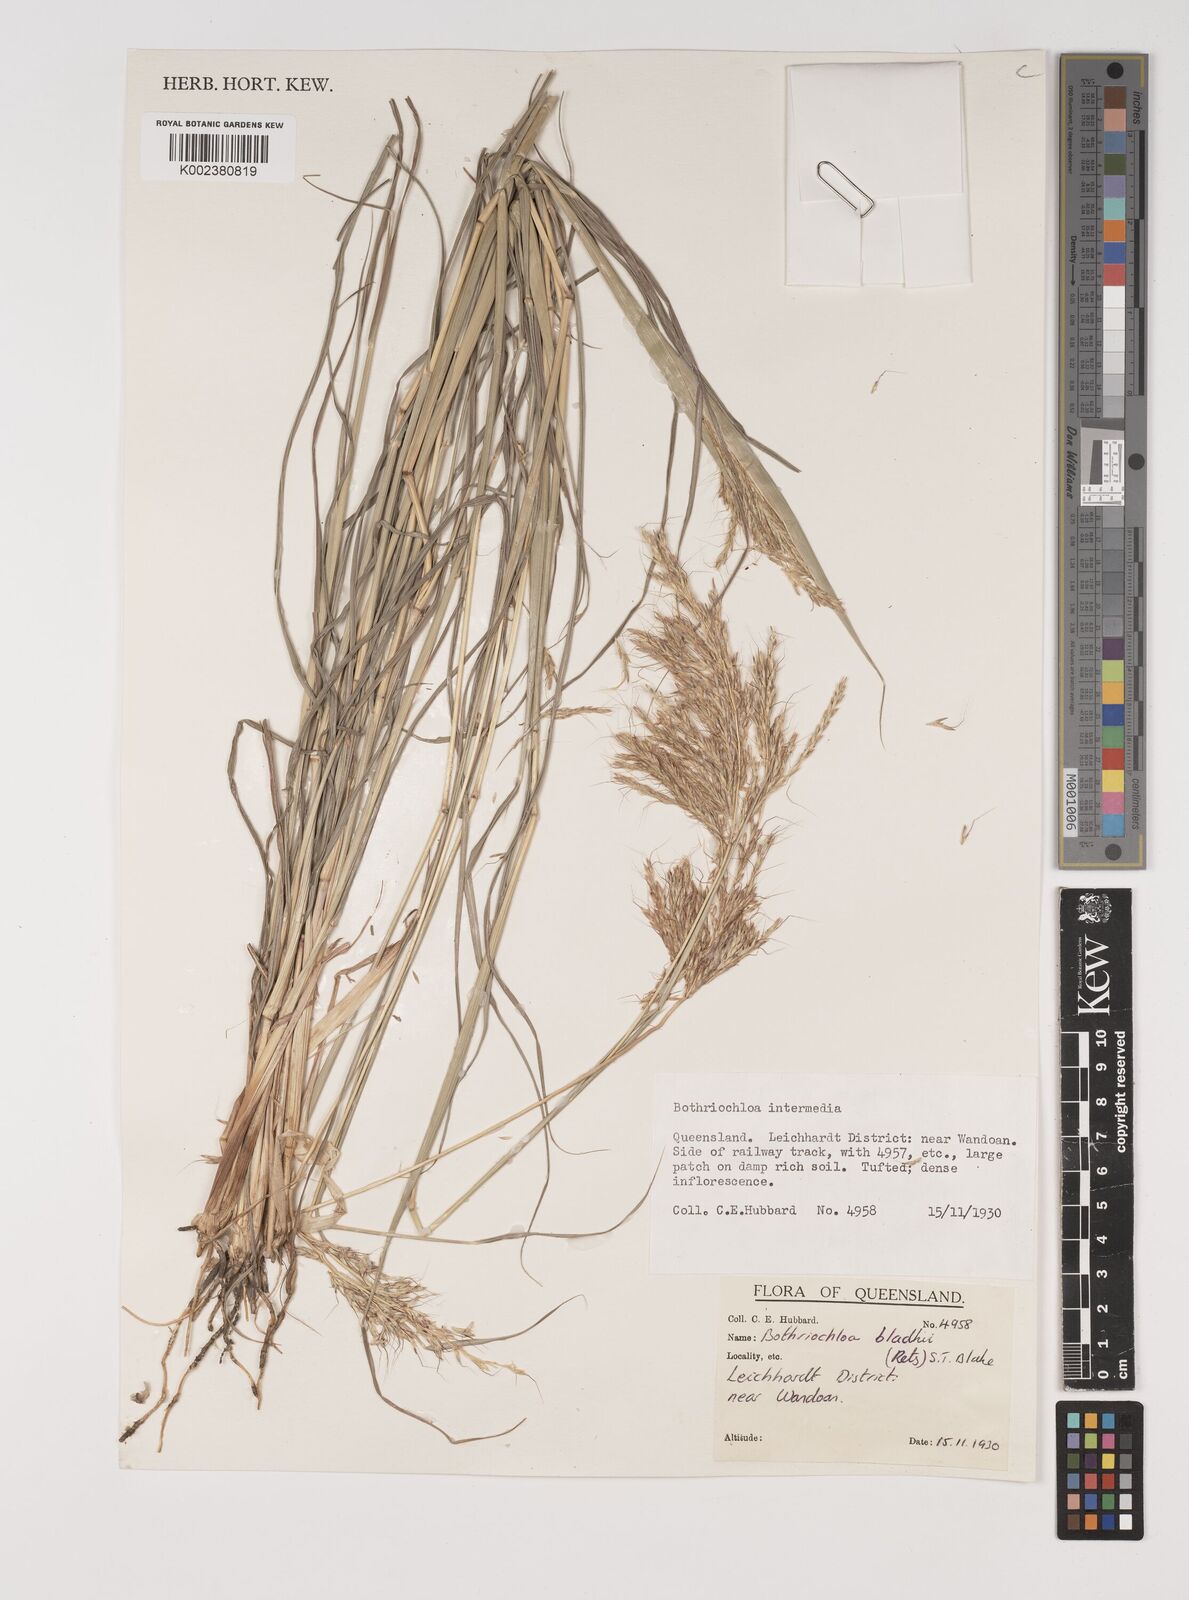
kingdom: Plantae
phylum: Tracheophyta
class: Liliopsida
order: Poales
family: Poaceae
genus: Bothriochloa
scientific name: Bothriochloa bladhii
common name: Caucasian bluestem
